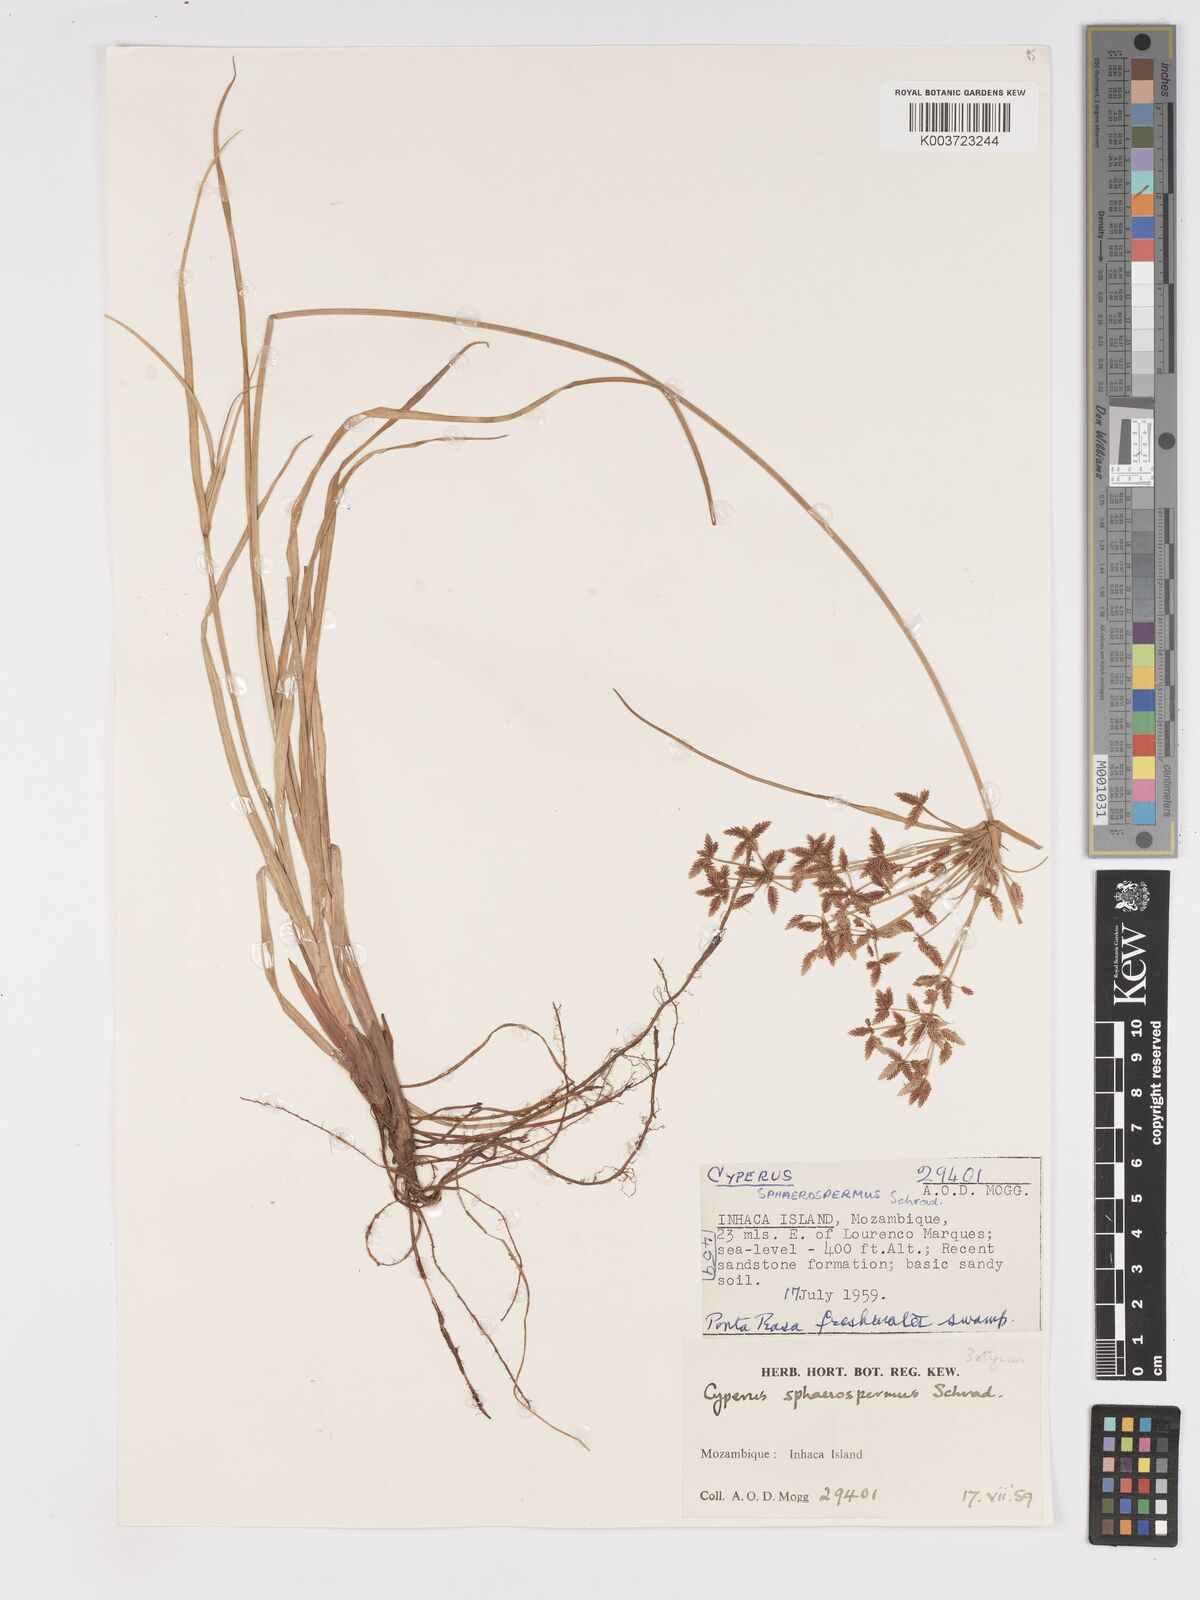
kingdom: Plantae
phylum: Tracheophyta
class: Liliopsida
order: Poales
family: Cyperaceae
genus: Cyperus
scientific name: Cyperus denudatus
